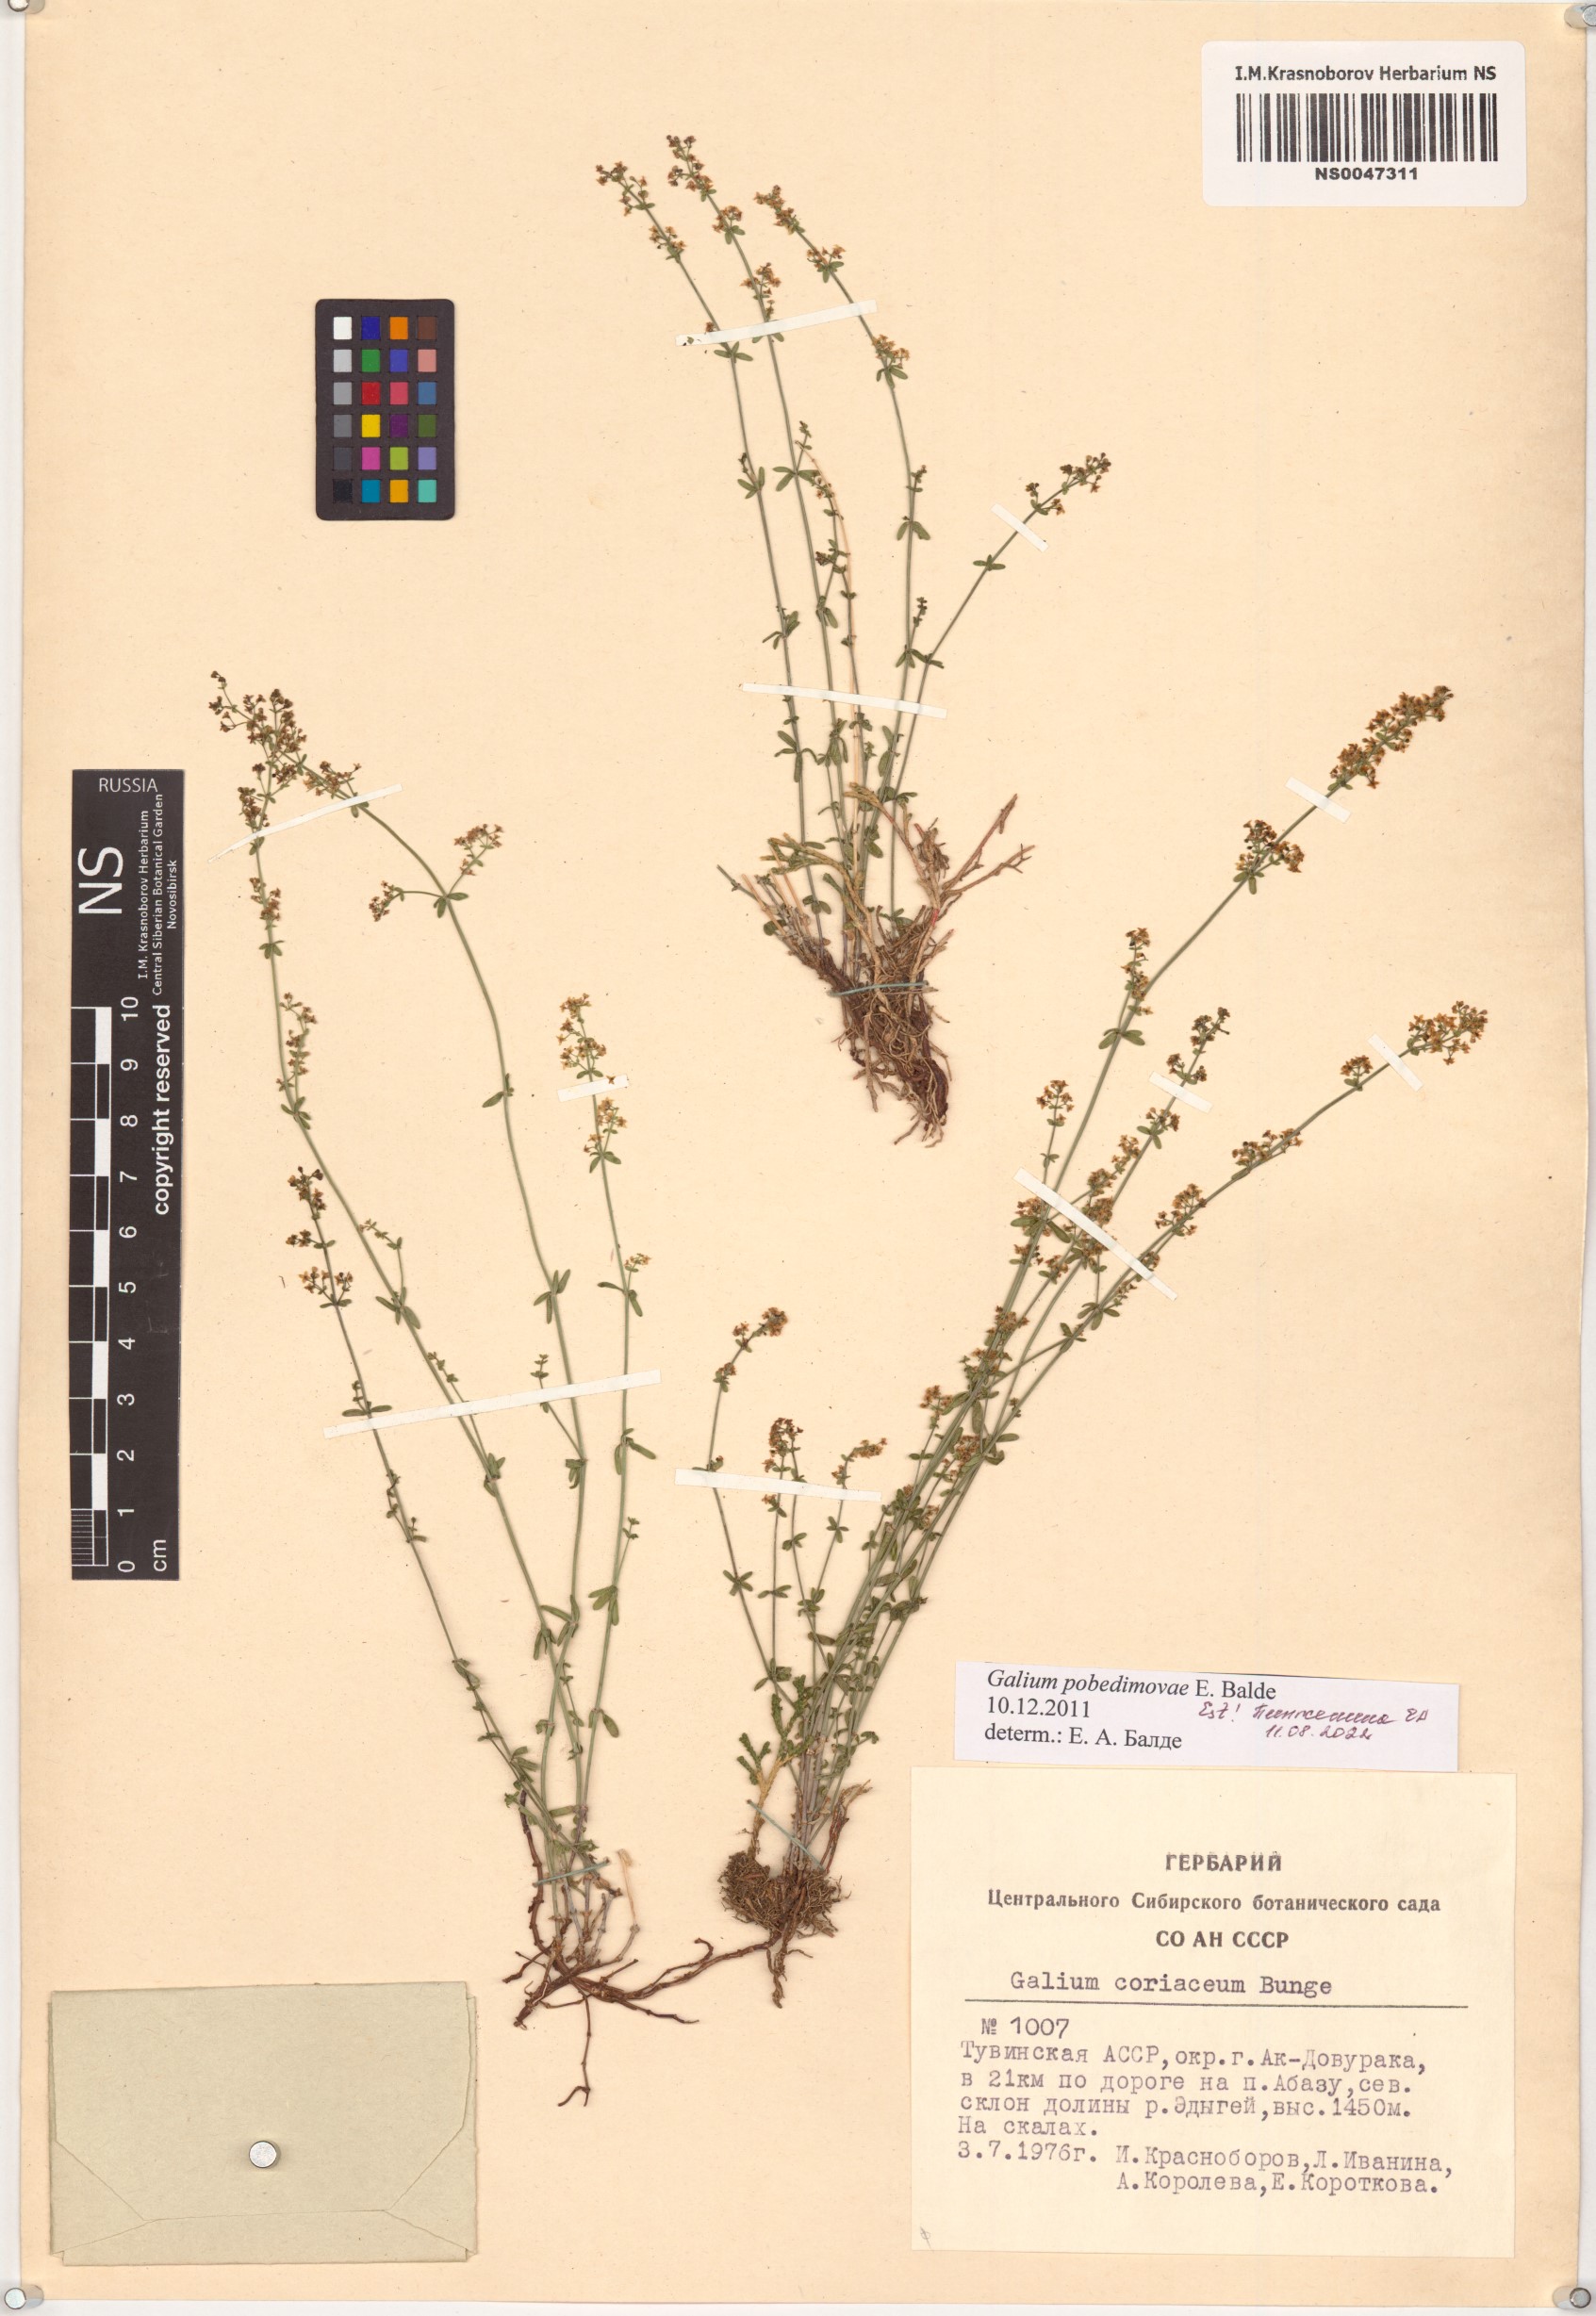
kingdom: Plantae
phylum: Tracheophyta
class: Magnoliopsida
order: Gentianales
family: Rubiaceae
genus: Galium
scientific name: Galium pobedimovae
